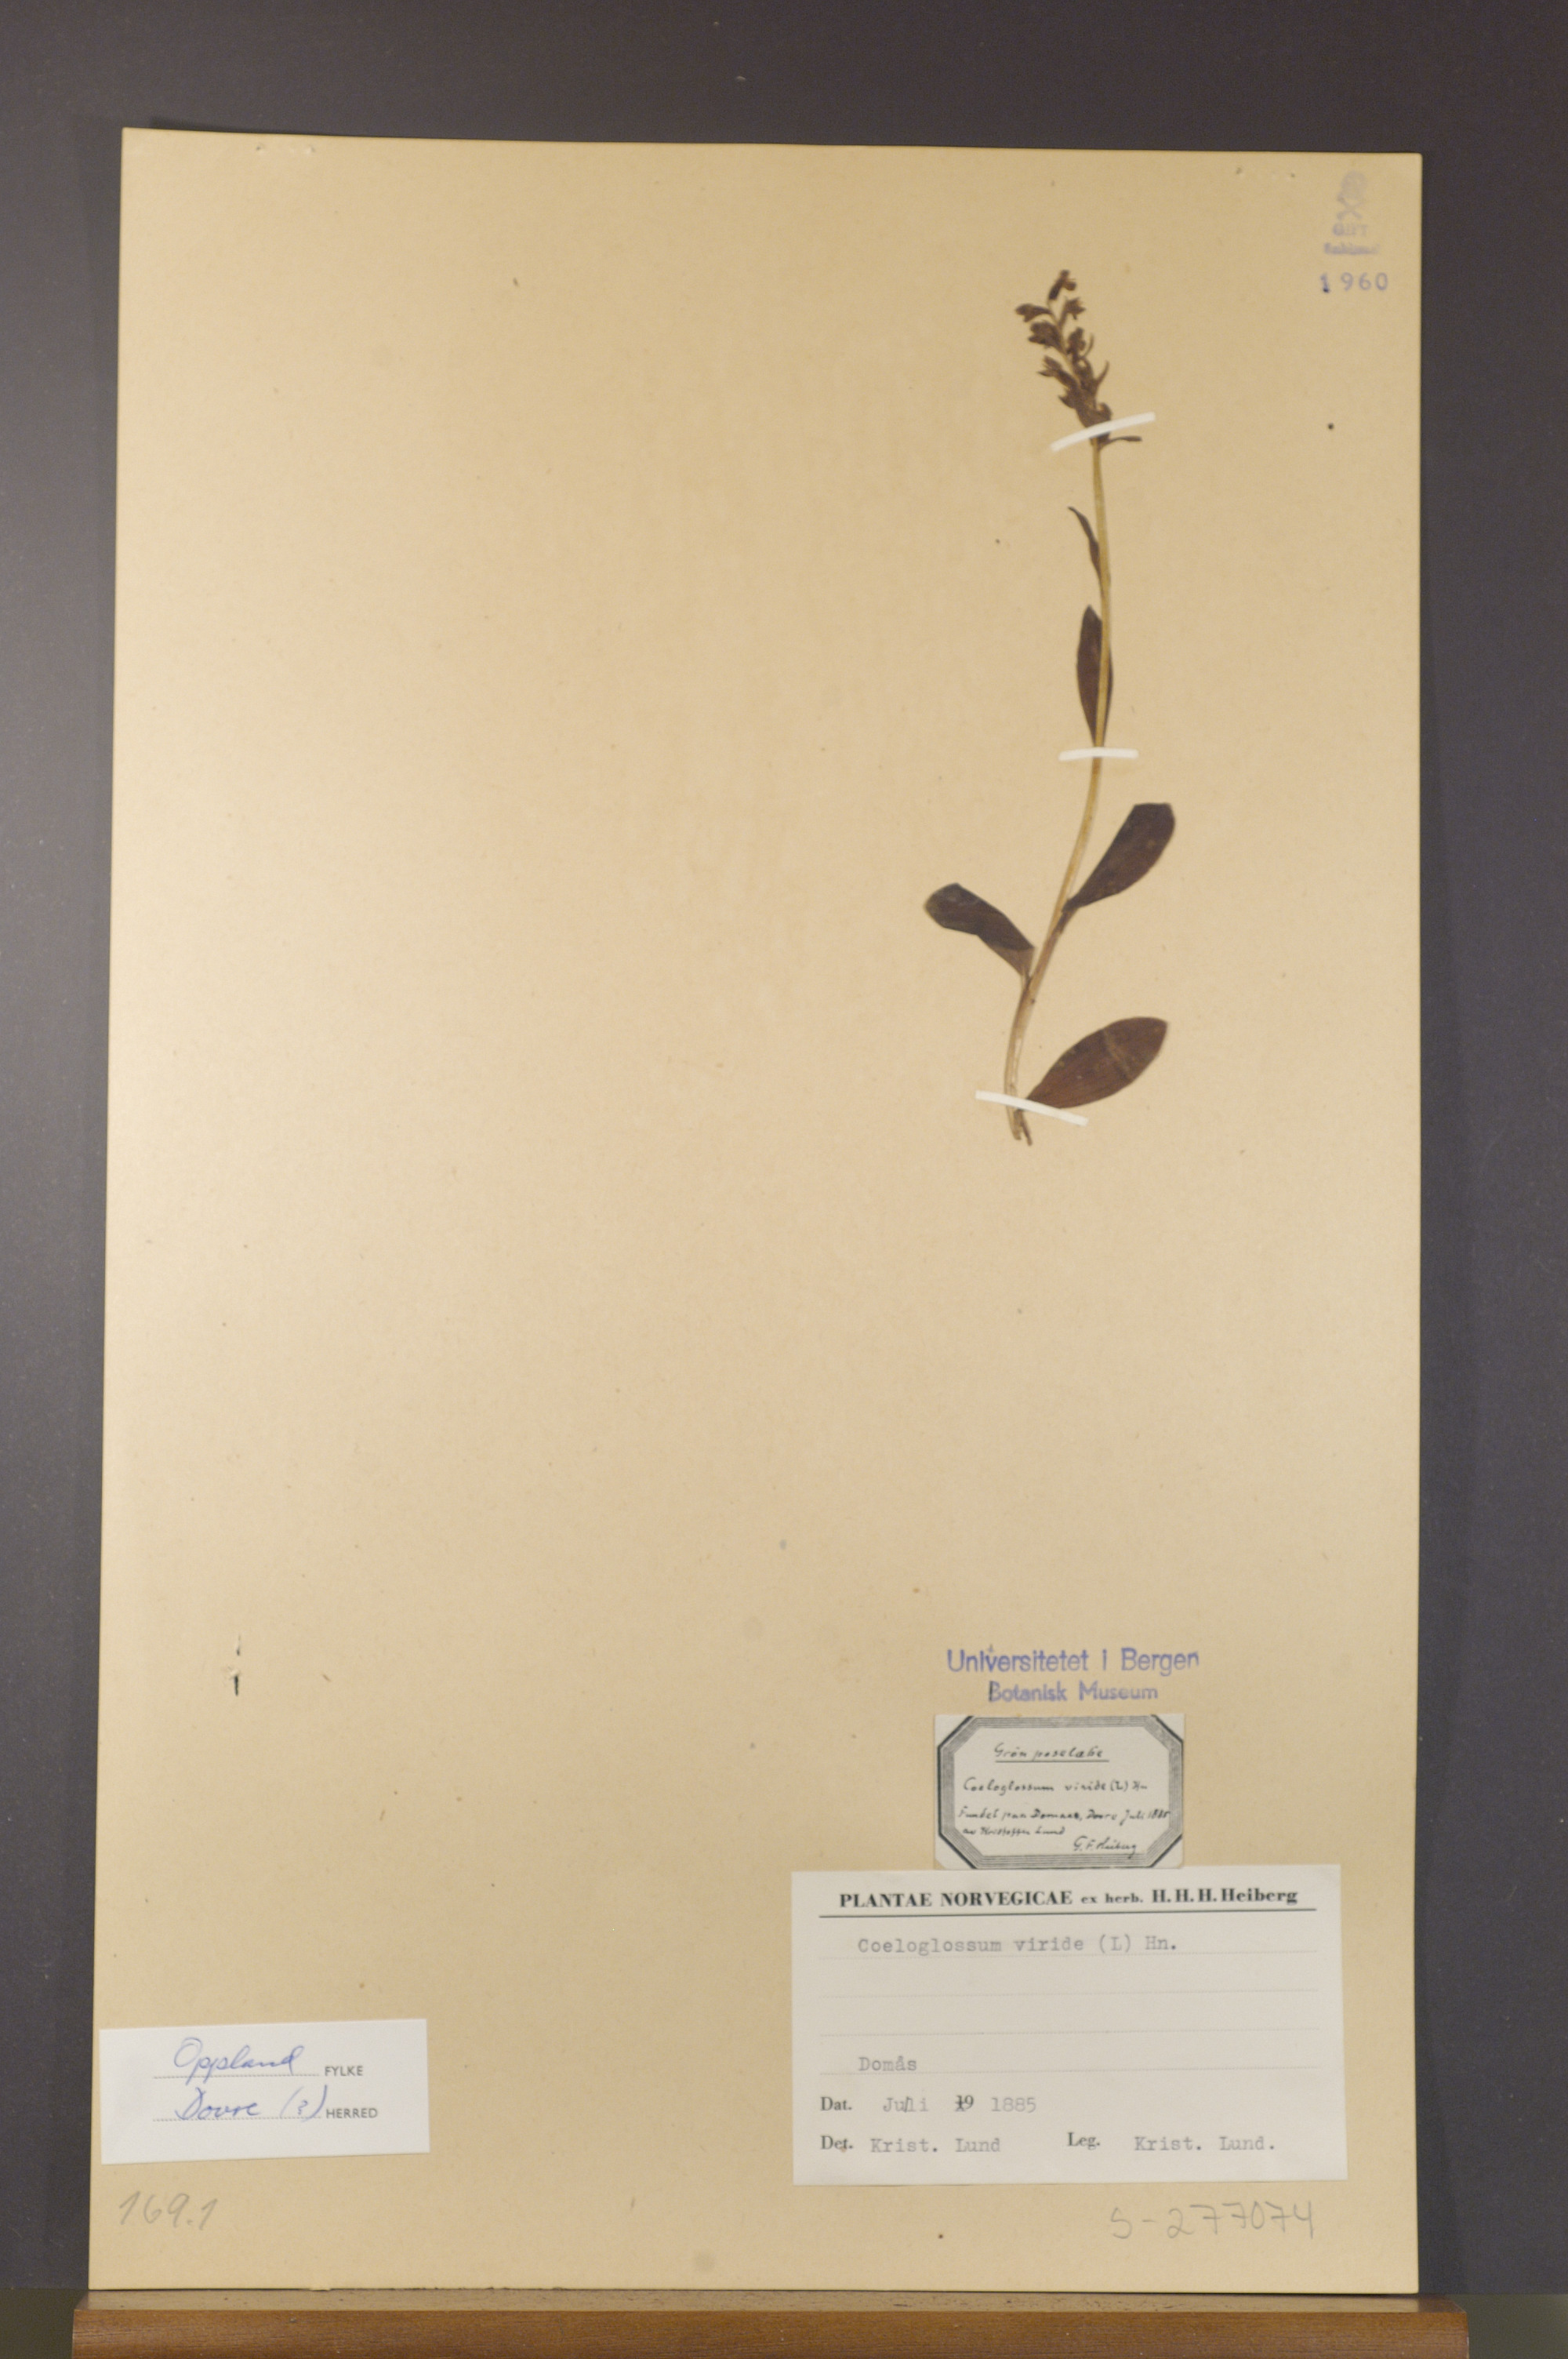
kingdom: Plantae
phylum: Tracheophyta
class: Liliopsida
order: Asparagales
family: Orchidaceae
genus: Dactylorhiza
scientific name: Dactylorhiza viridis
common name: Longbract frog orchid
